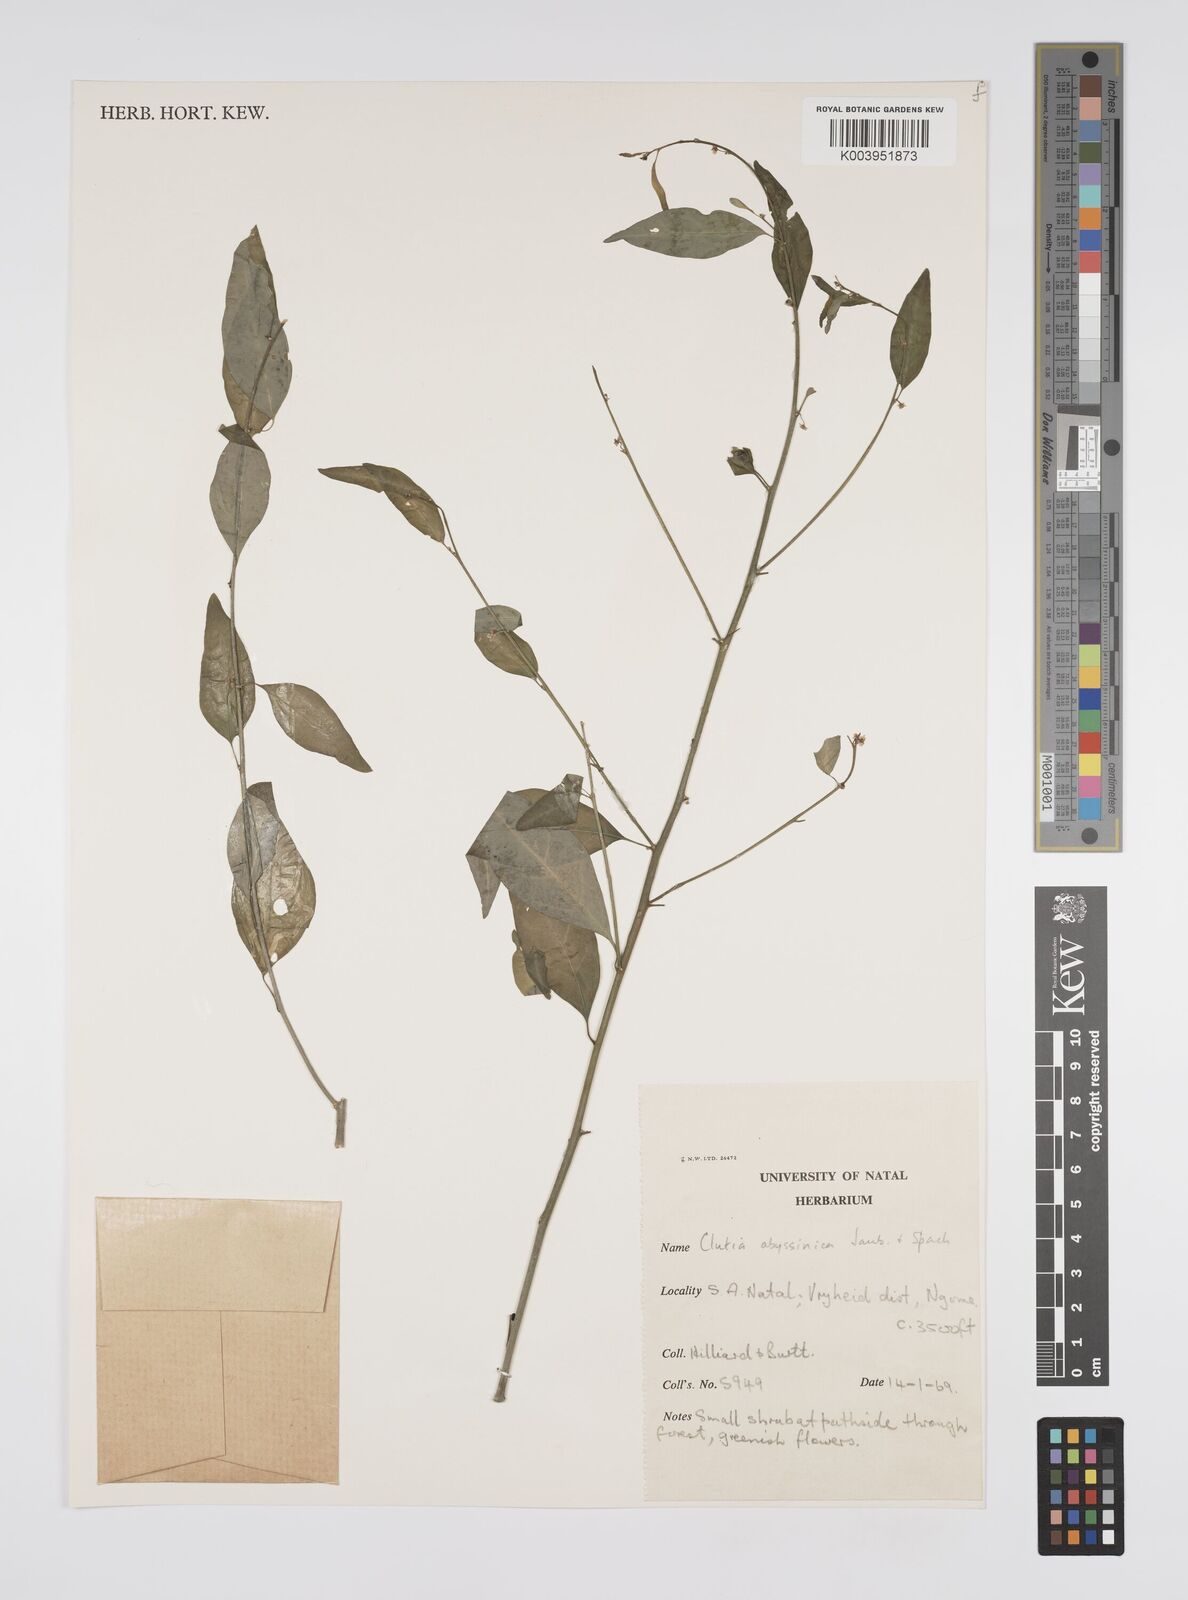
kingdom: Plantae
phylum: Tracheophyta
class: Magnoliopsida
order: Malpighiales
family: Peraceae
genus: Clutia
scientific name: Clutia
